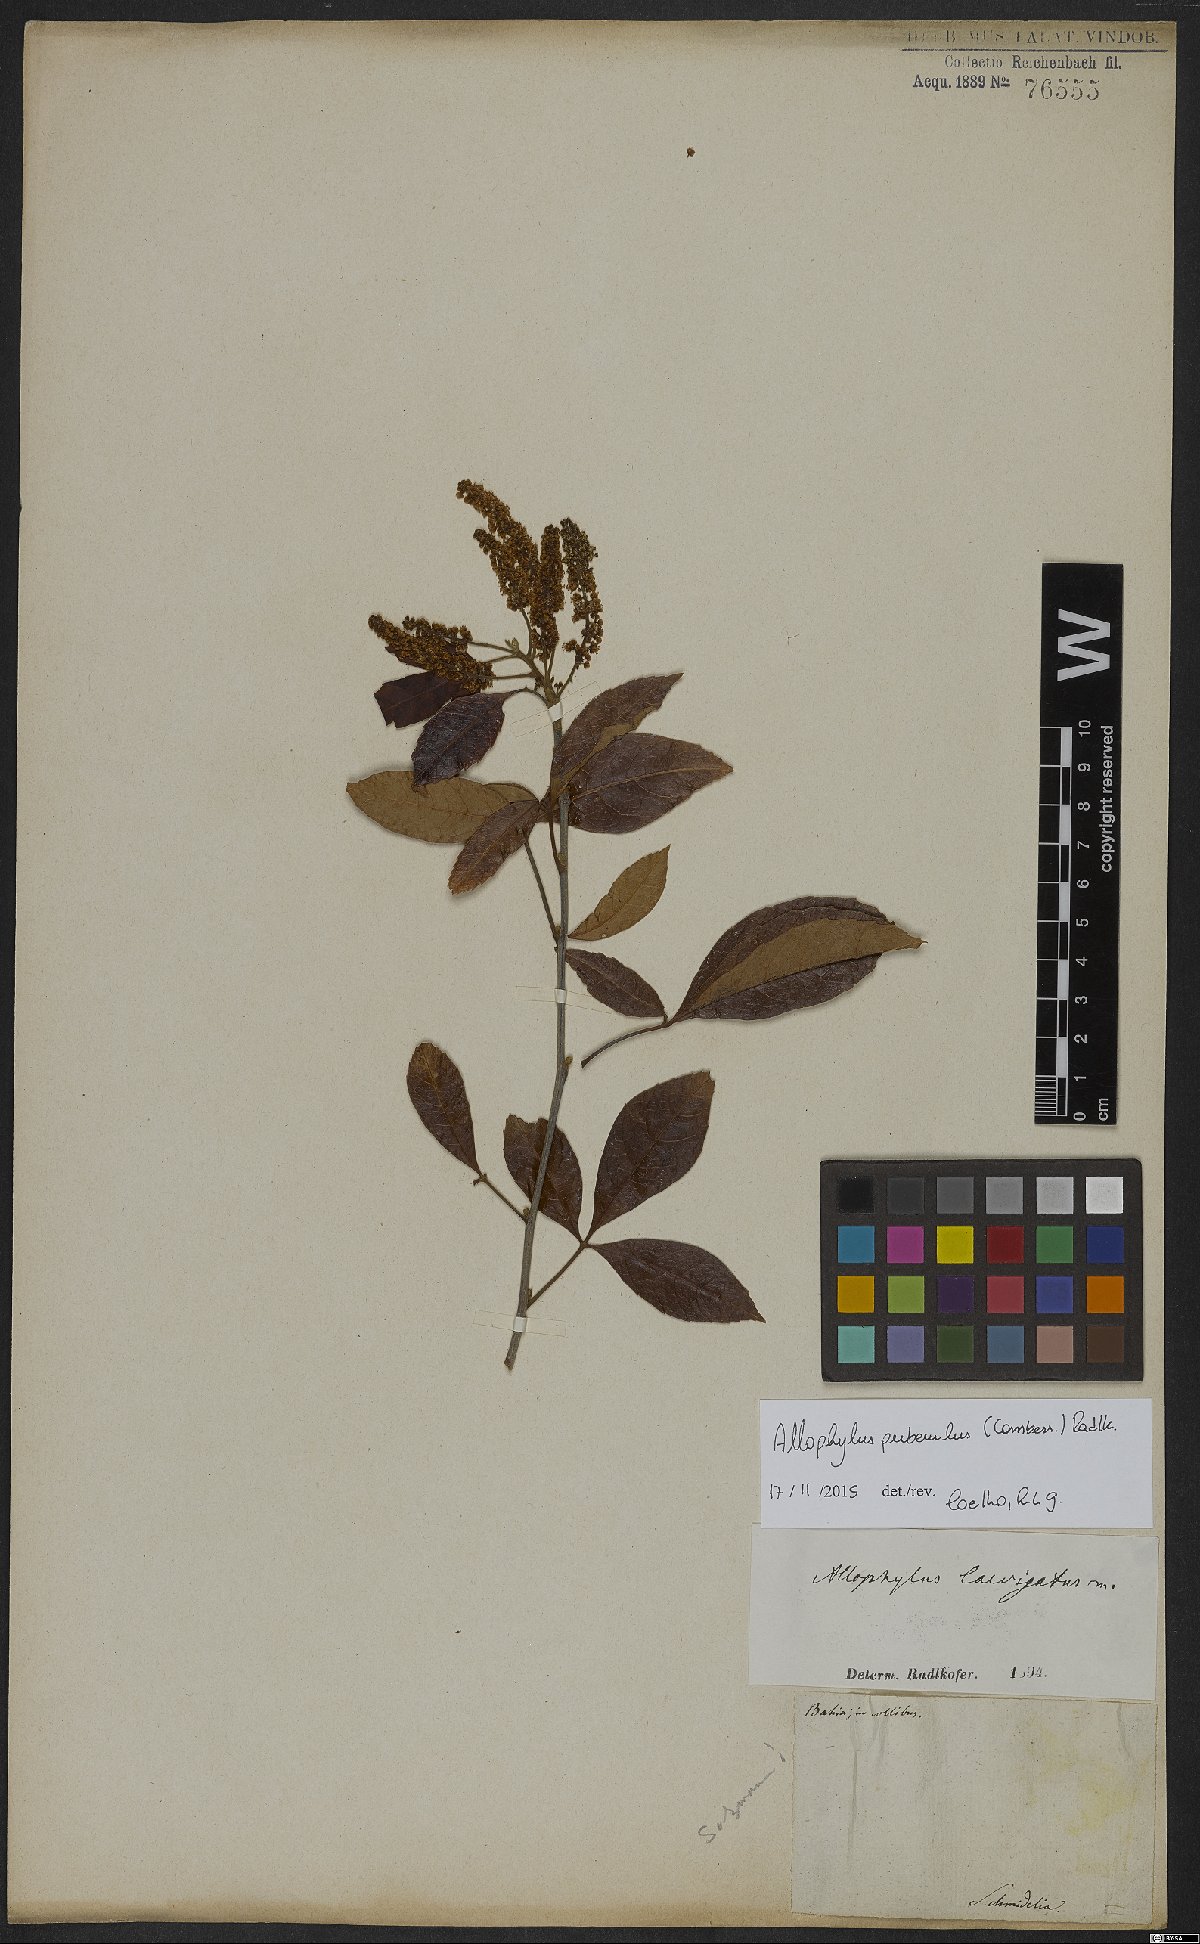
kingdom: Plantae
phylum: Tracheophyta
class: Magnoliopsida
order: Sapindales
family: Sapindaceae
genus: Allophylus
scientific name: Allophylus puberulus
